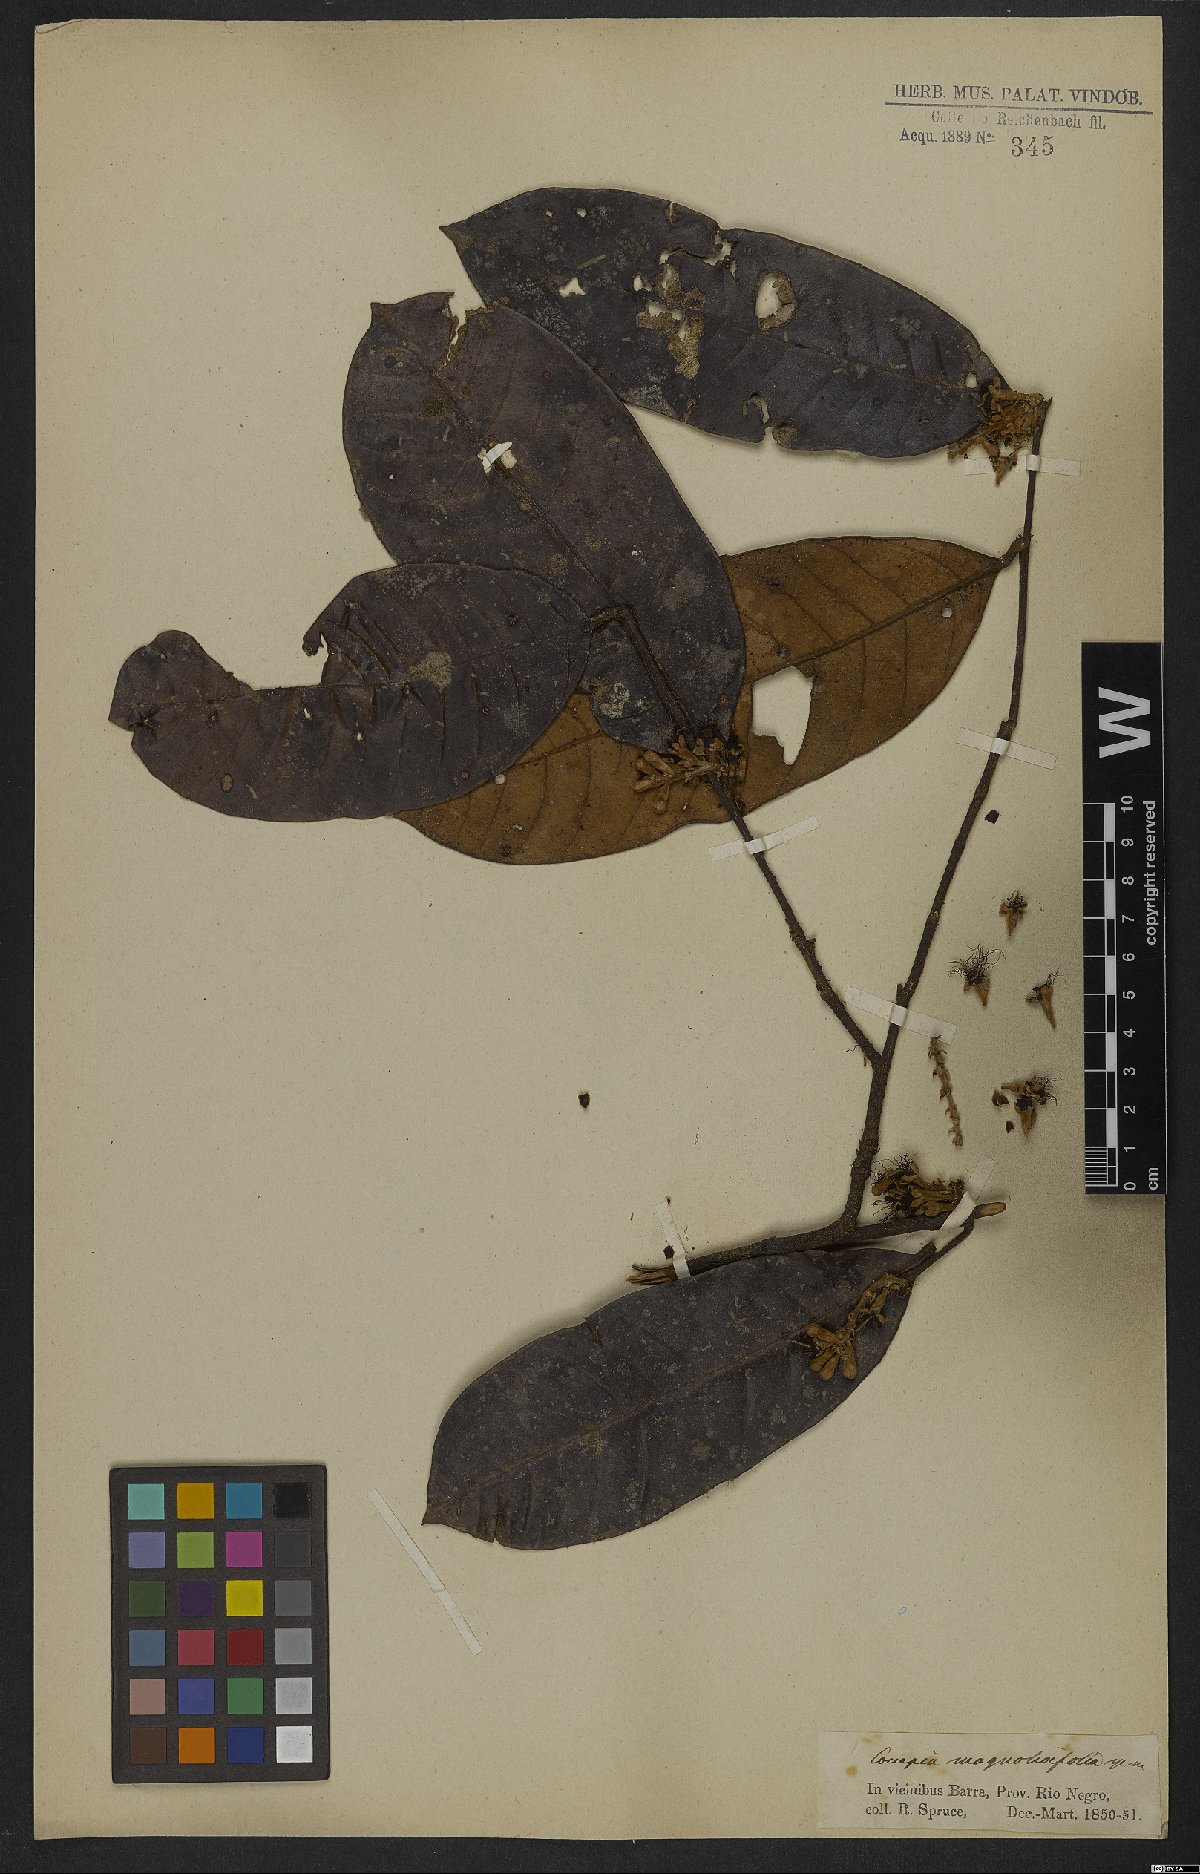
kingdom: Plantae
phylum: Tracheophyta
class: Magnoliopsida
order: Malpighiales
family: Chrysobalanaceae
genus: Couepia
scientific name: Couepia magnoliifolia
